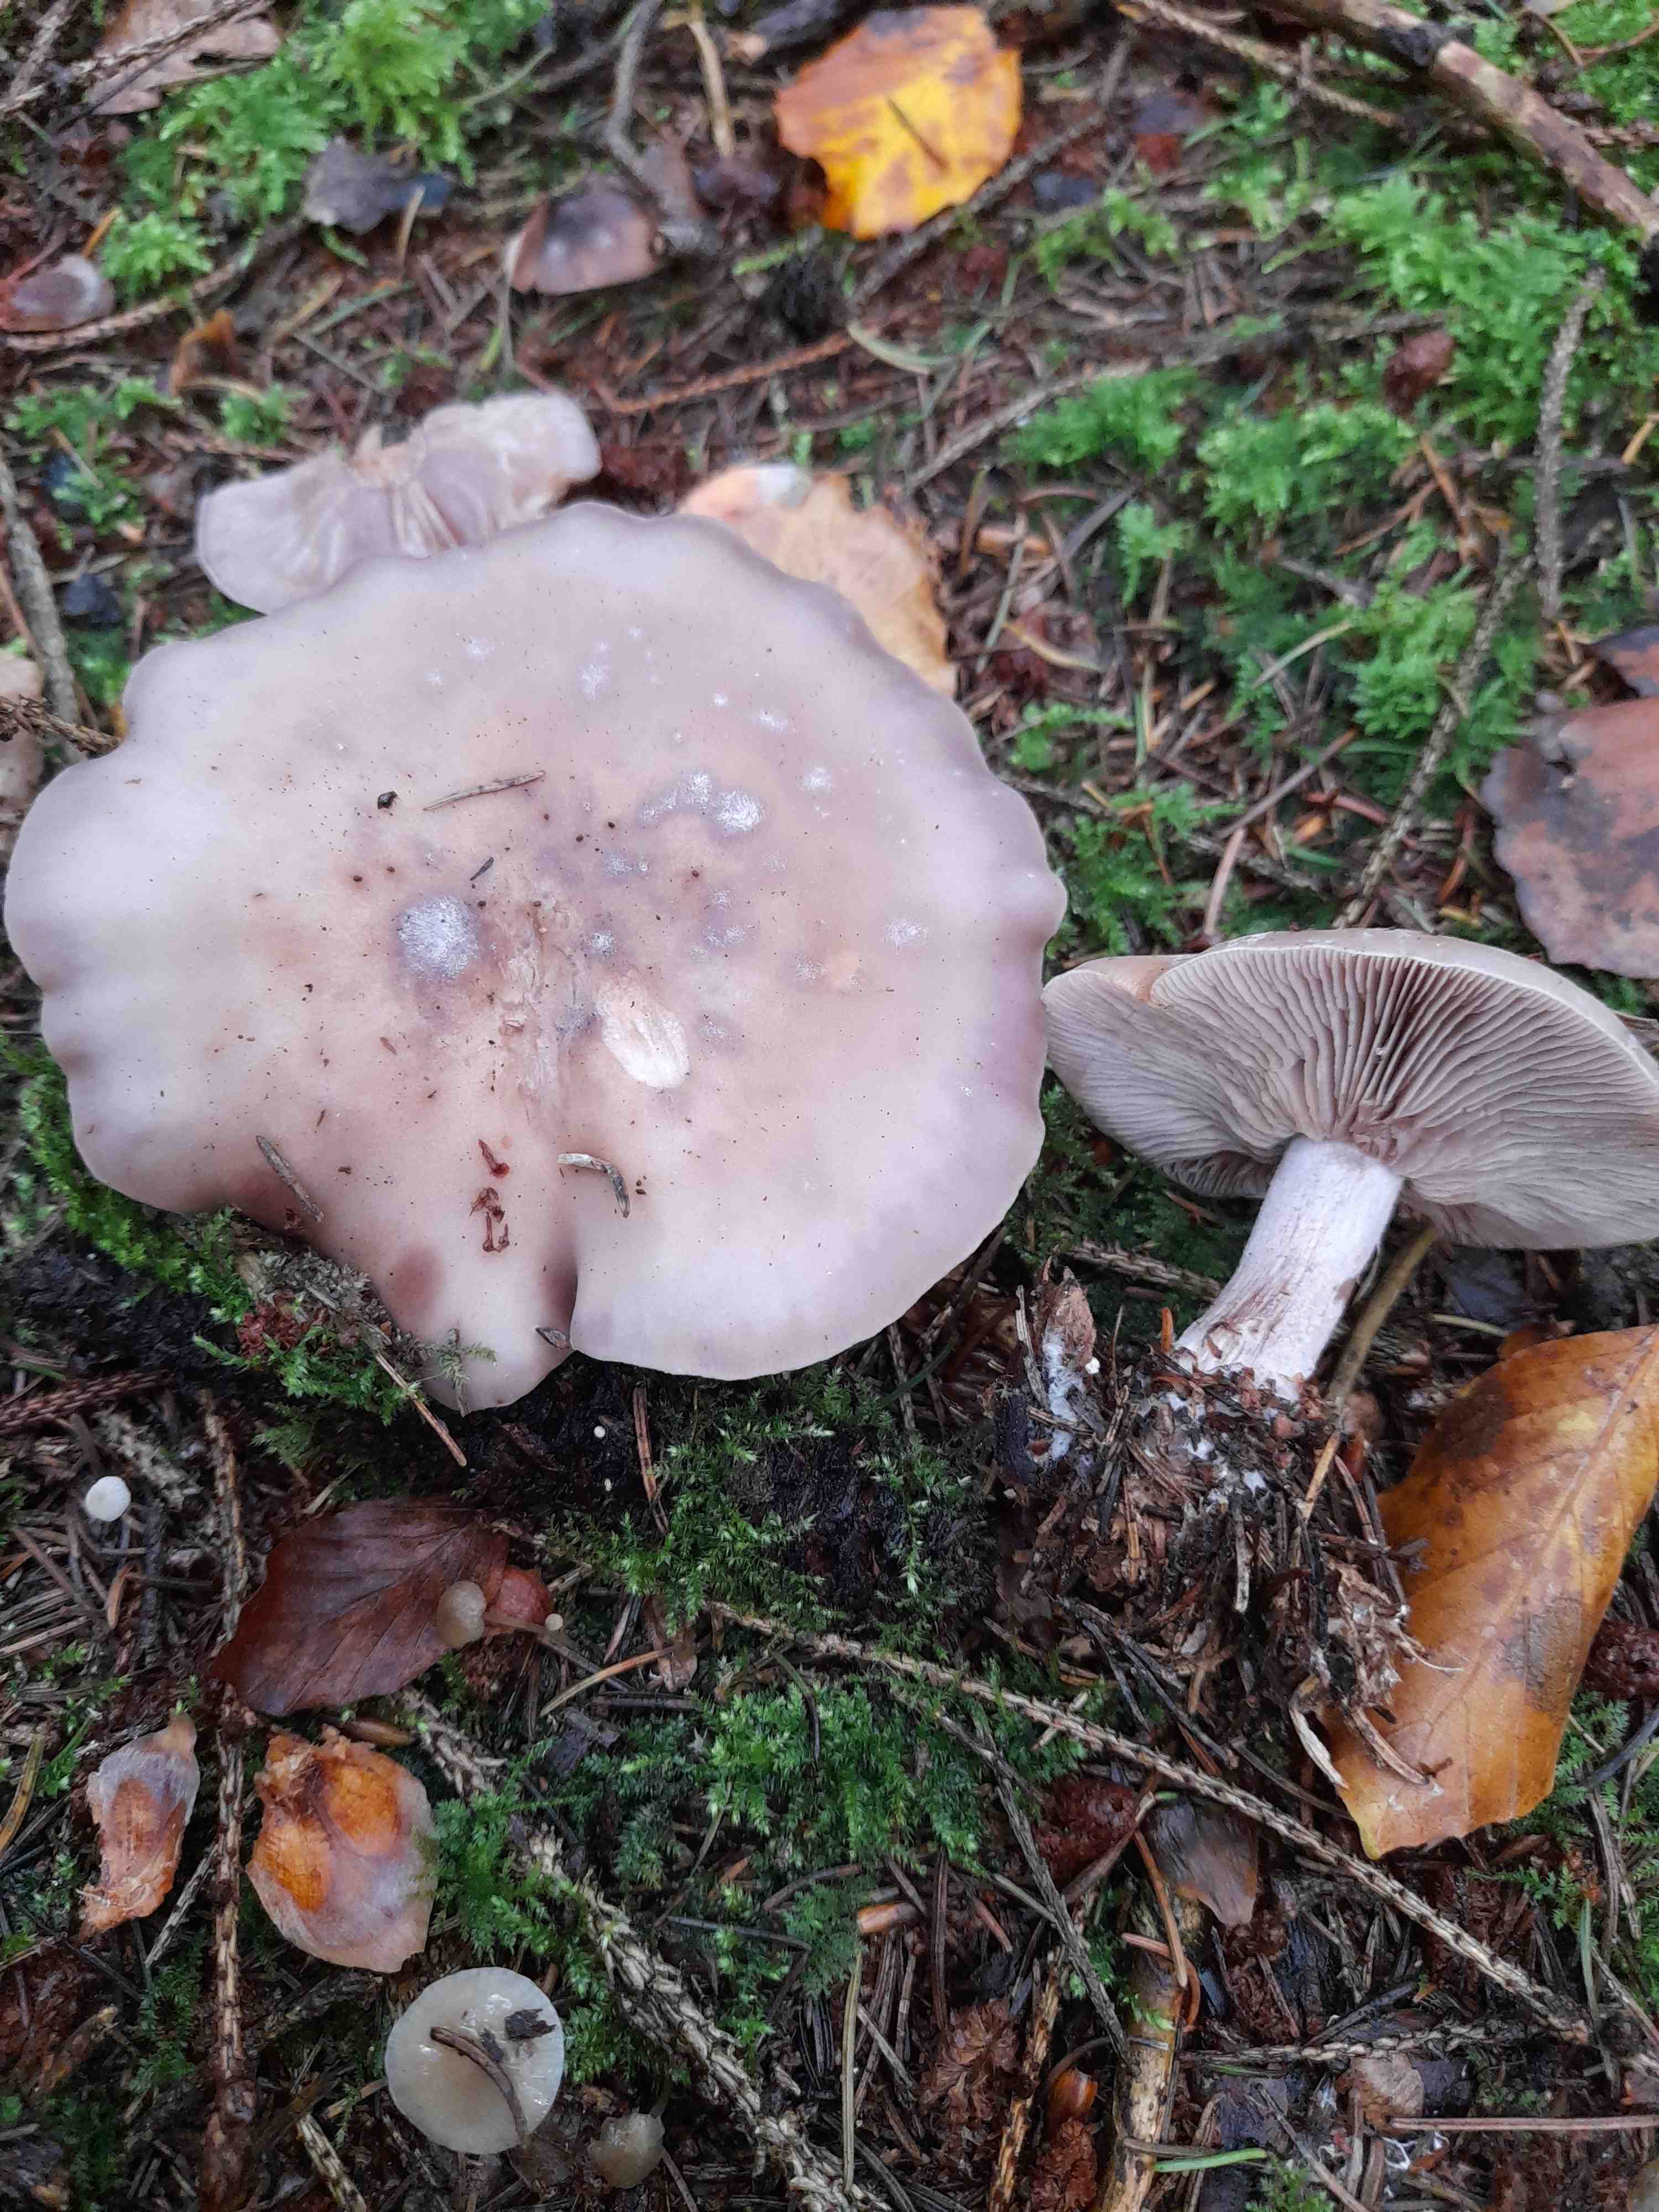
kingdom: Fungi
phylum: Basidiomycota
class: Agaricomycetes
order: Agaricales
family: Tricholomataceae
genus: Lepista
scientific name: Lepista nuda
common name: violet hekseringshat
